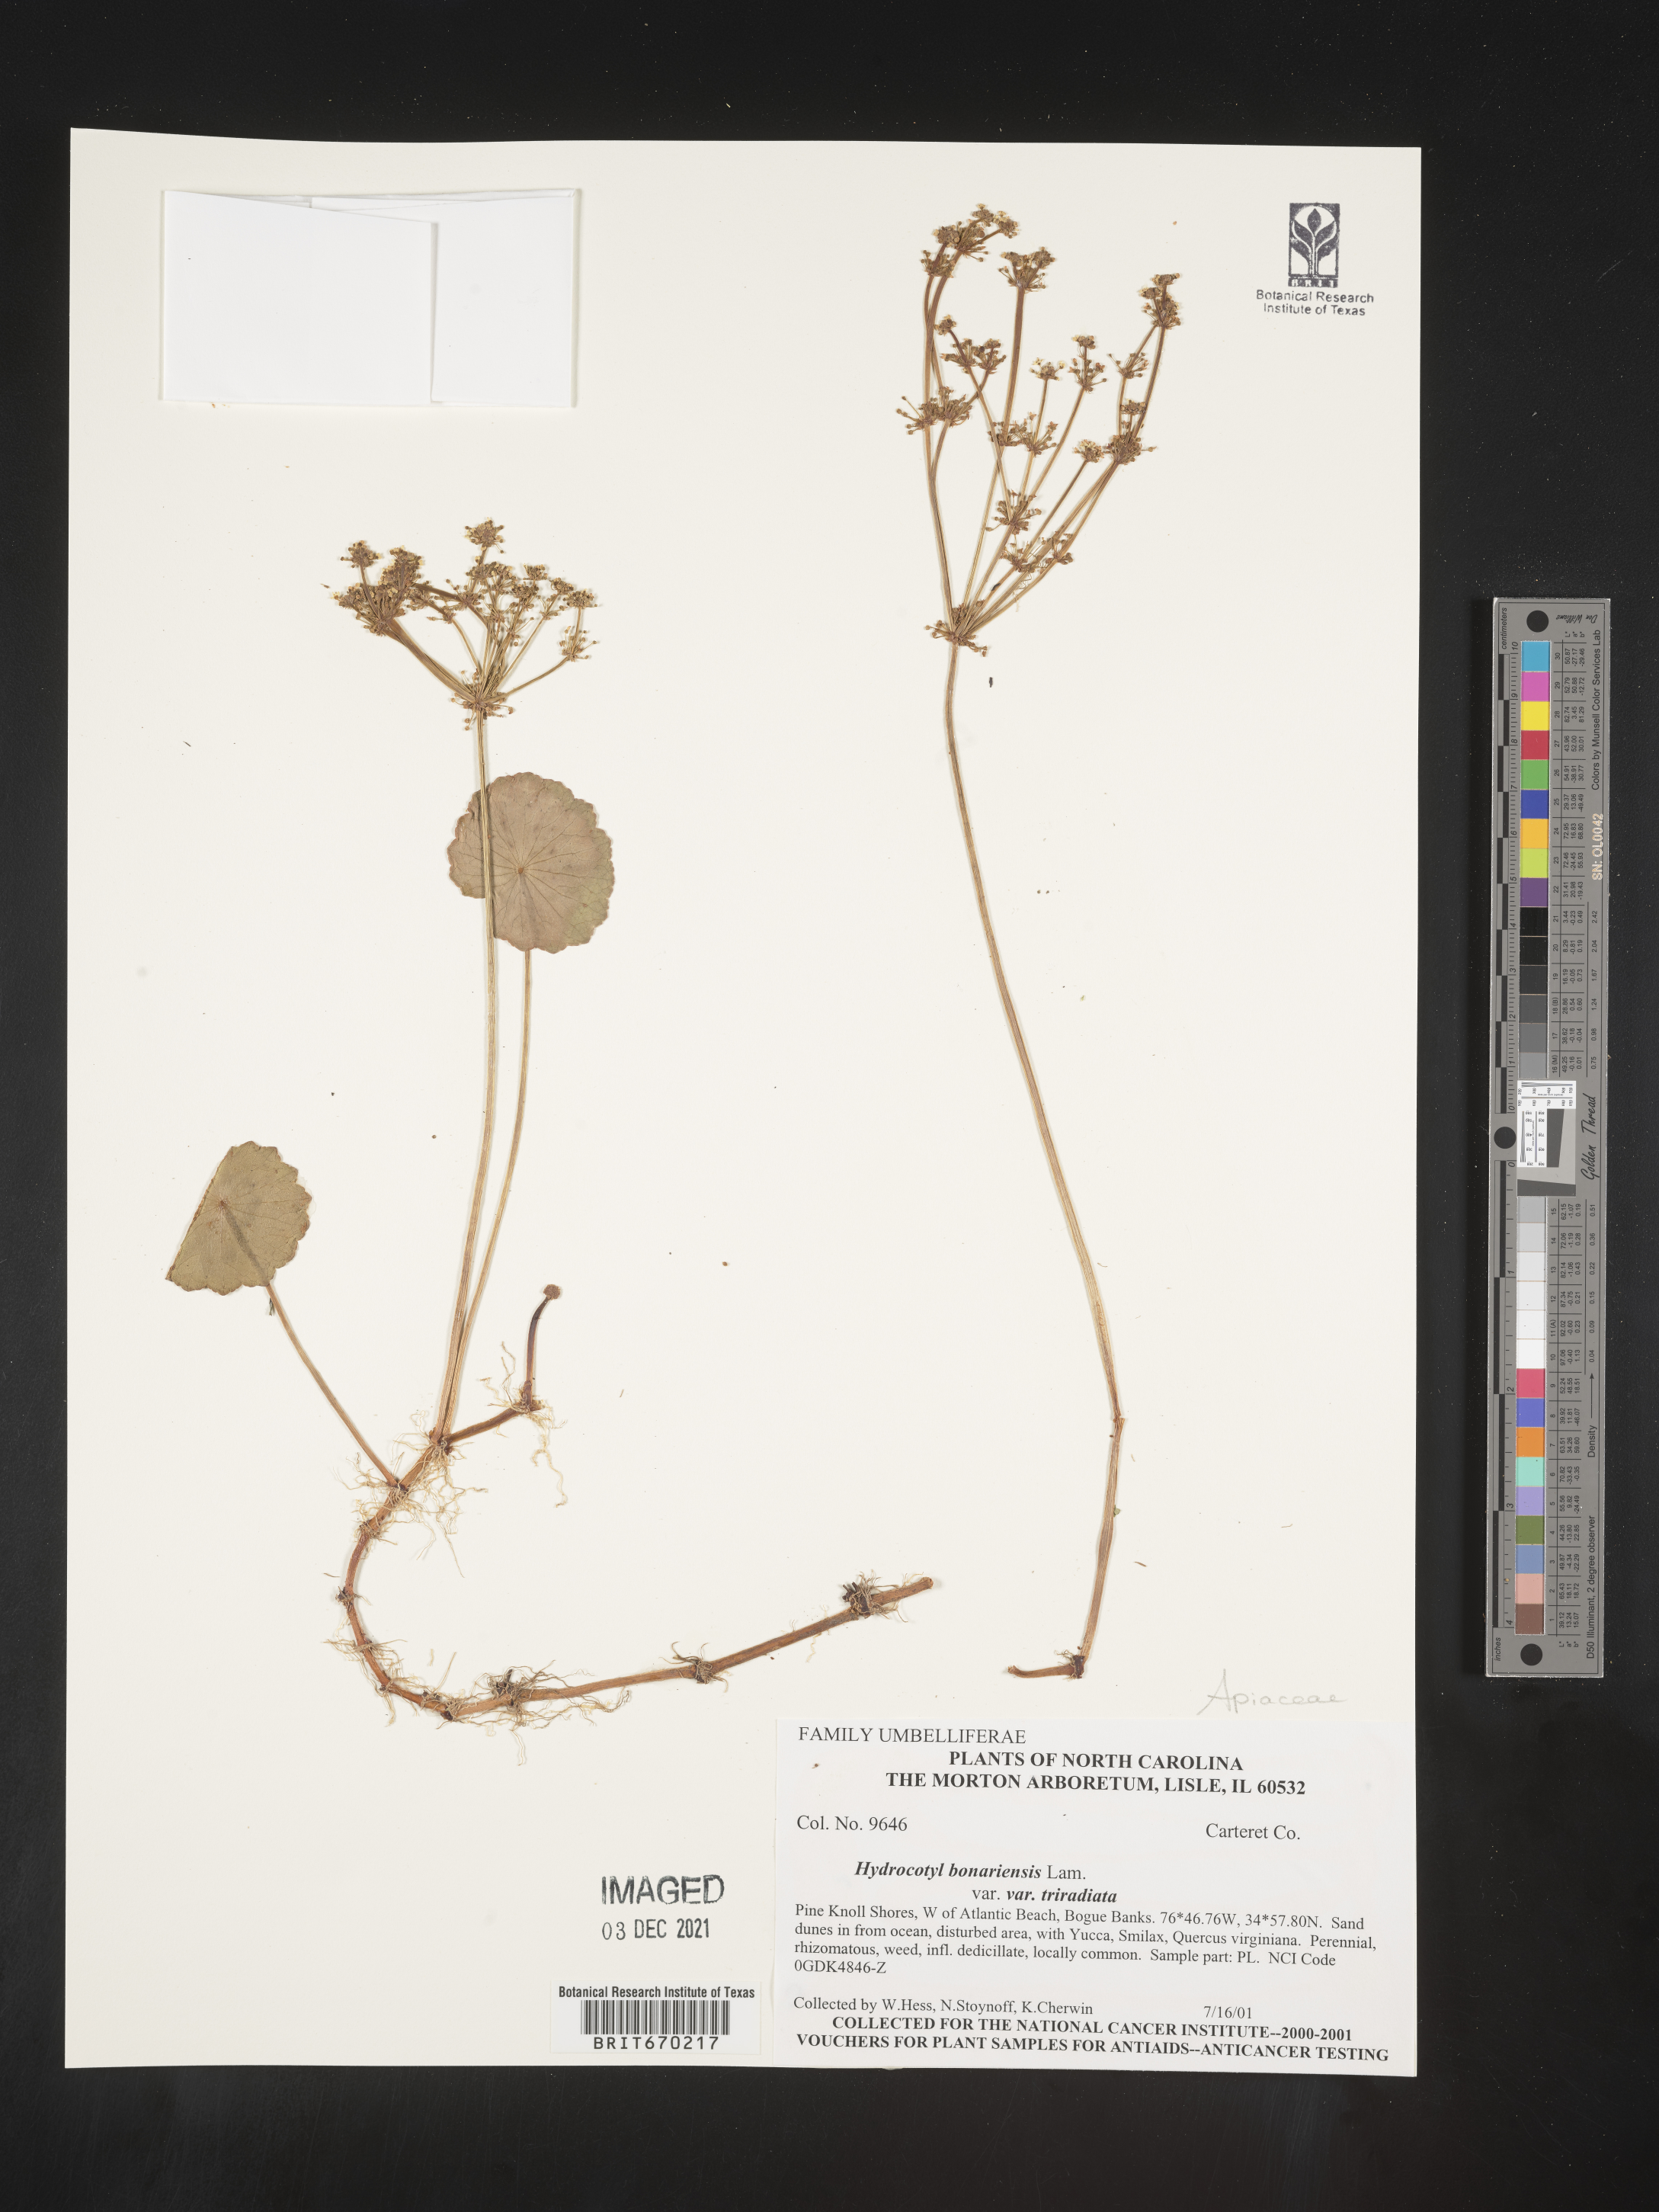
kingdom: Plantae
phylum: Tracheophyta
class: Magnoliopsida
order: Apiales
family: Araliaceae
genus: Hydrocotyle
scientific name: Hydrocotyle bonariensis
